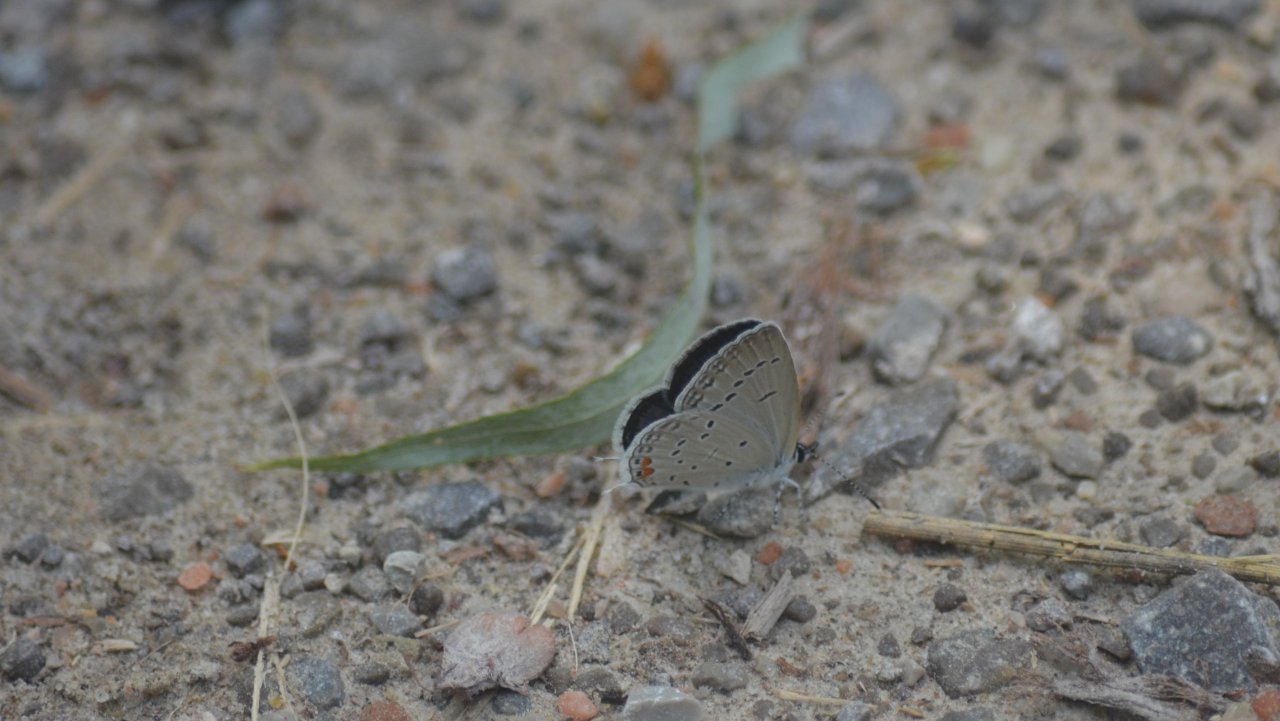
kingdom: Animalia
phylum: Arthropoda
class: Insecta
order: Lepidoptera
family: Lycaenidae
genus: Elkalyce
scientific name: Elkalyce comyntas
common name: Eastern Tailed-Blue
